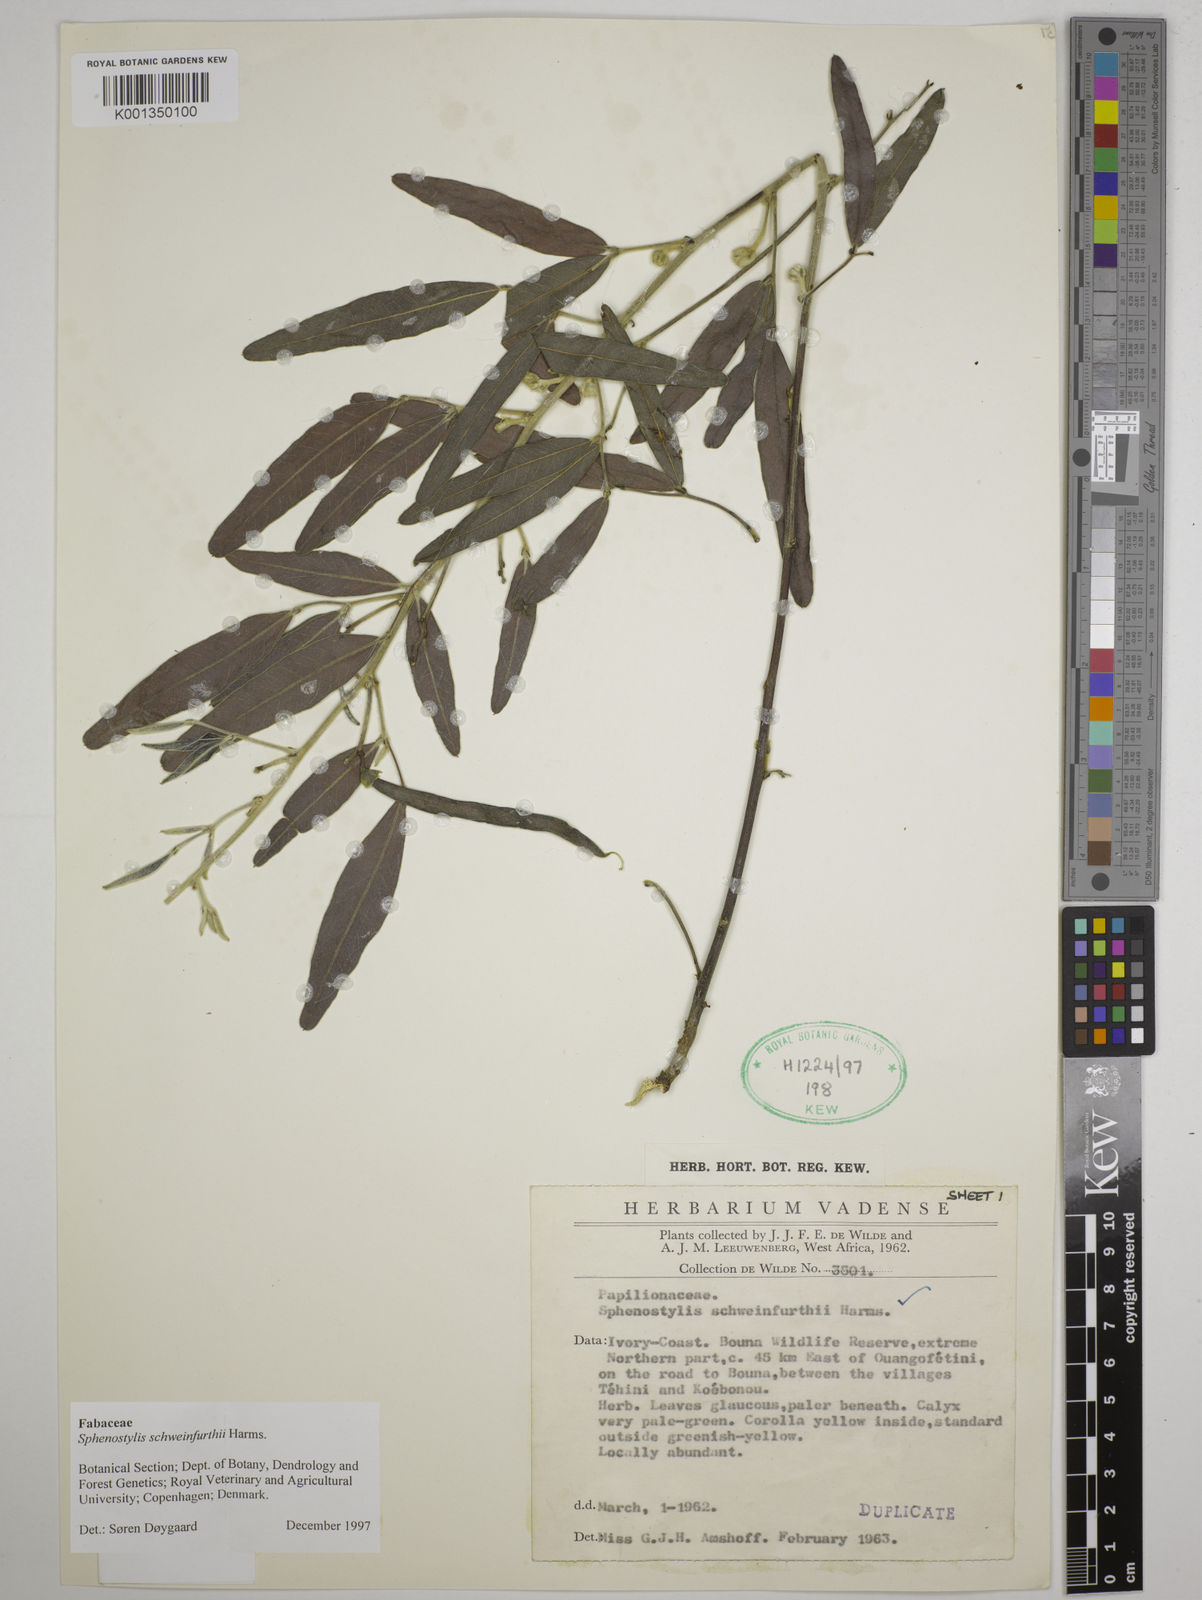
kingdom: Plantae
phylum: Tracheophyta
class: Magnoliopsida
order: Fabales
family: Fabaceae
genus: Sphenostylis
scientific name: Sphenostylis schweinfurthii
